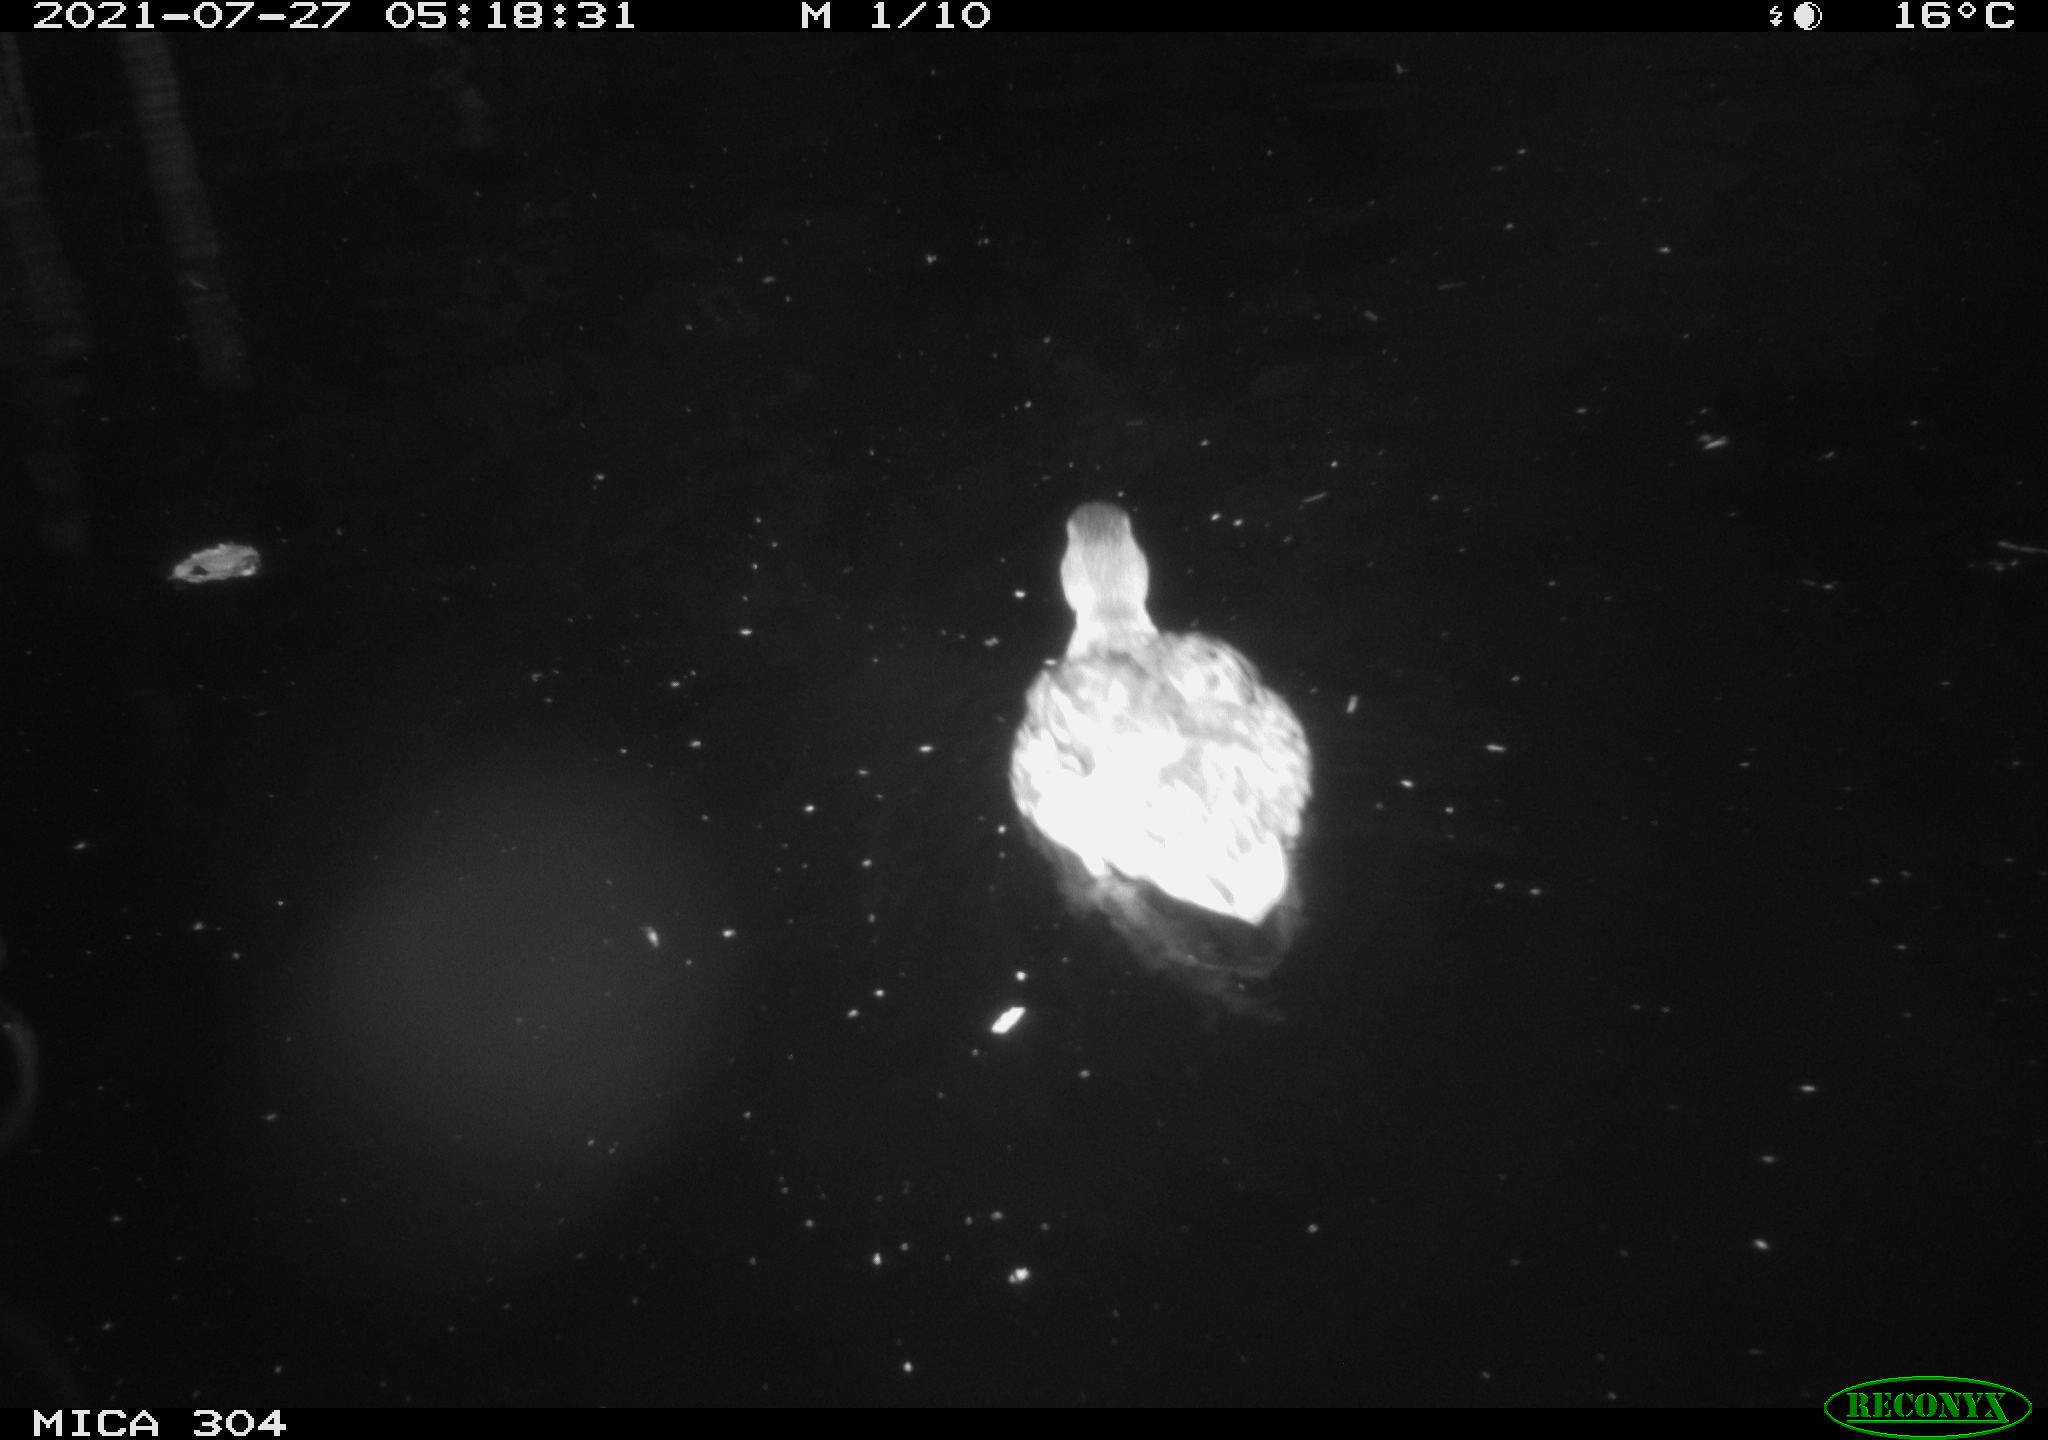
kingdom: Animalia
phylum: Chordata
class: Aves
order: Anseriformes
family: Anatidae
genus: Anas
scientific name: Anas platyrhynchos
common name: Mallard
